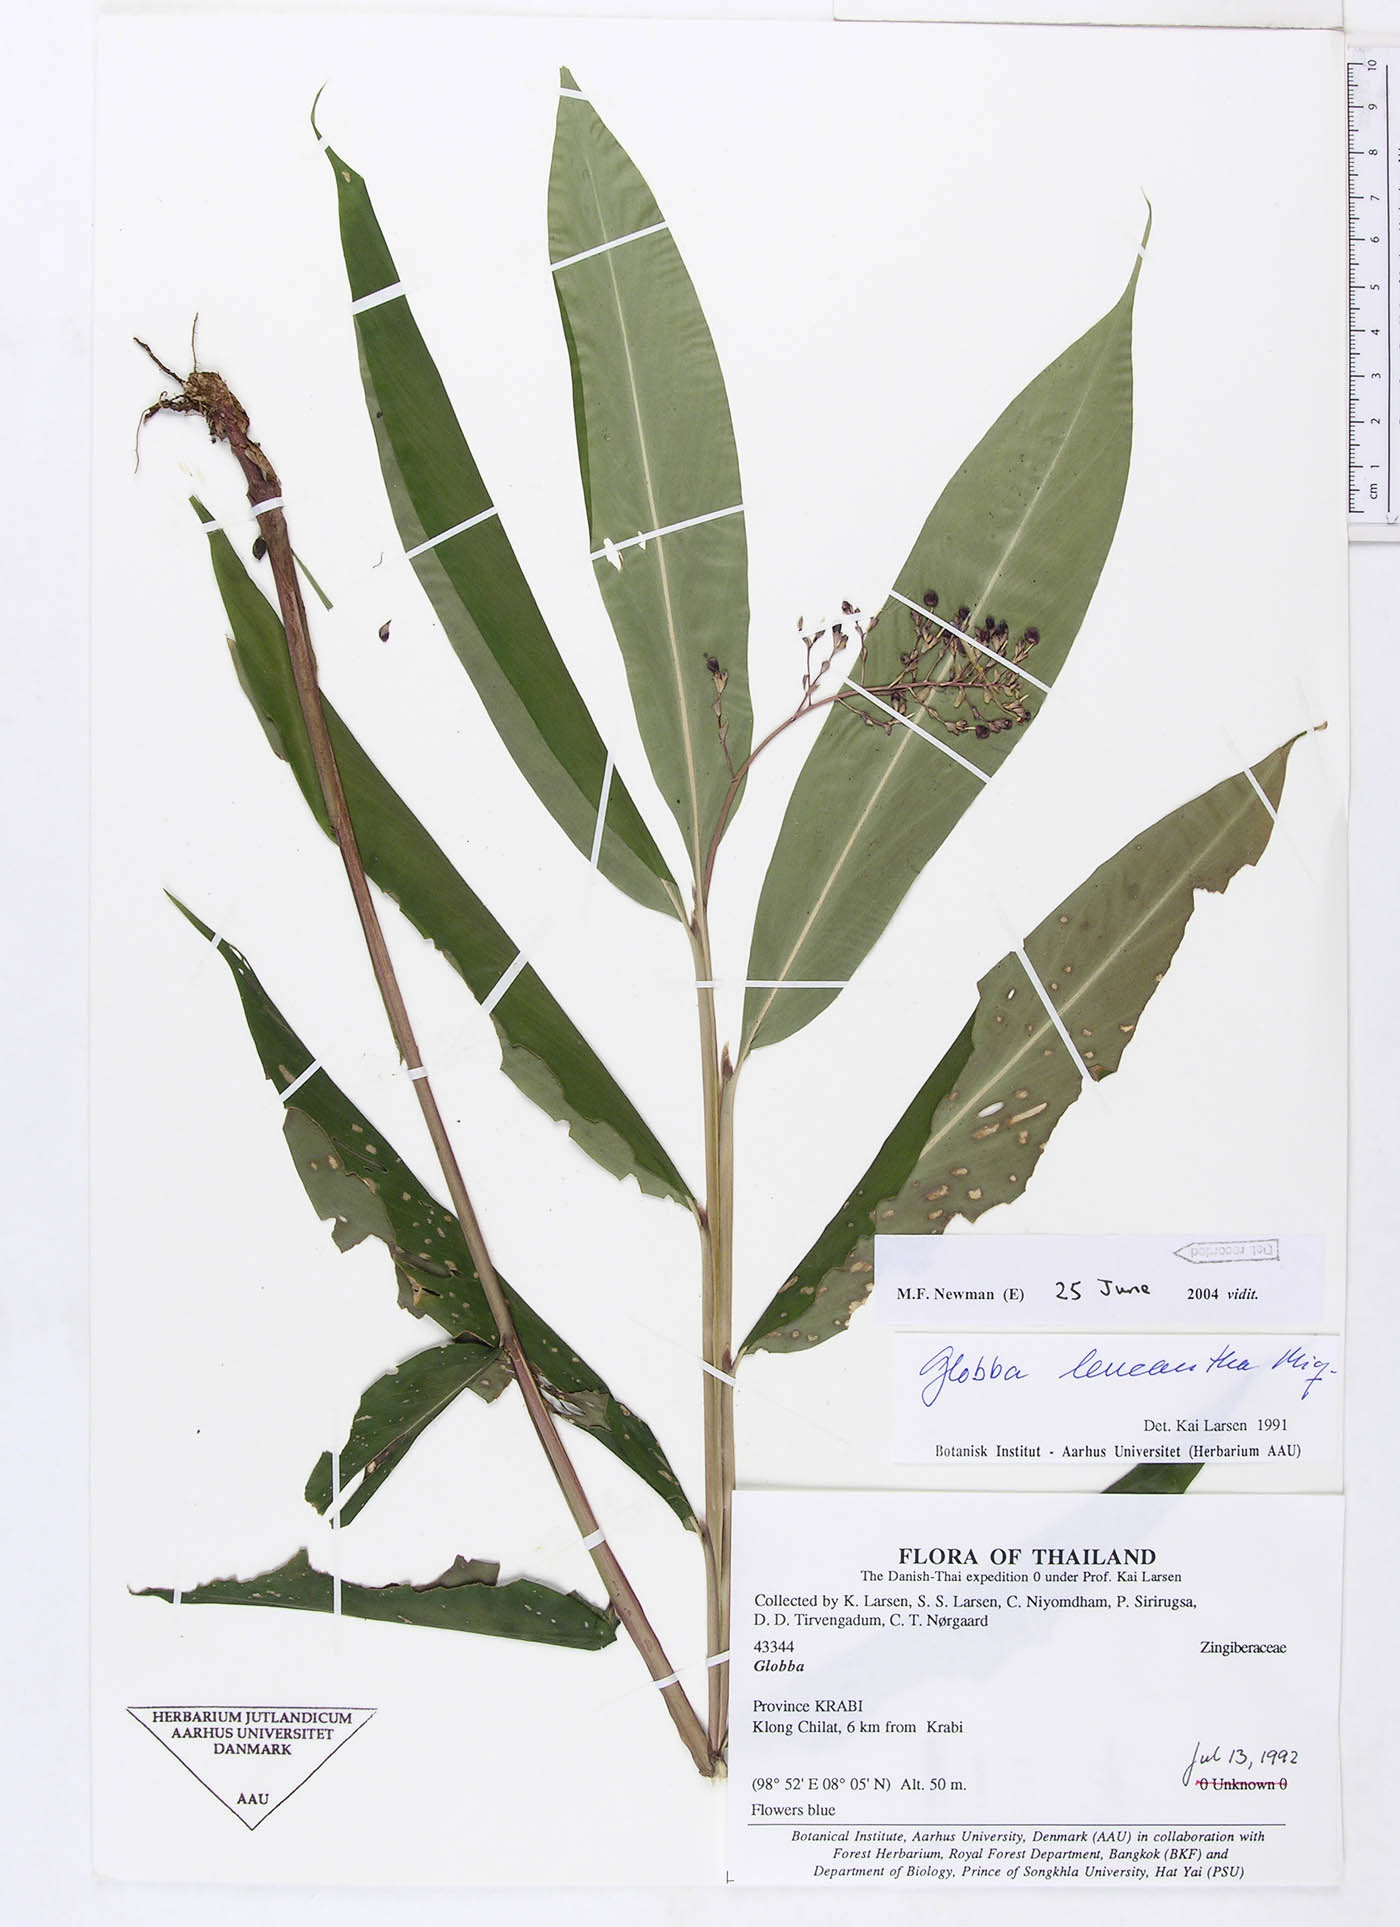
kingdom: Plantae
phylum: Tracheophyta
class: Liliopsida
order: Zingiberales
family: Zingiberaceae
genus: Globba
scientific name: Globba leucantha
